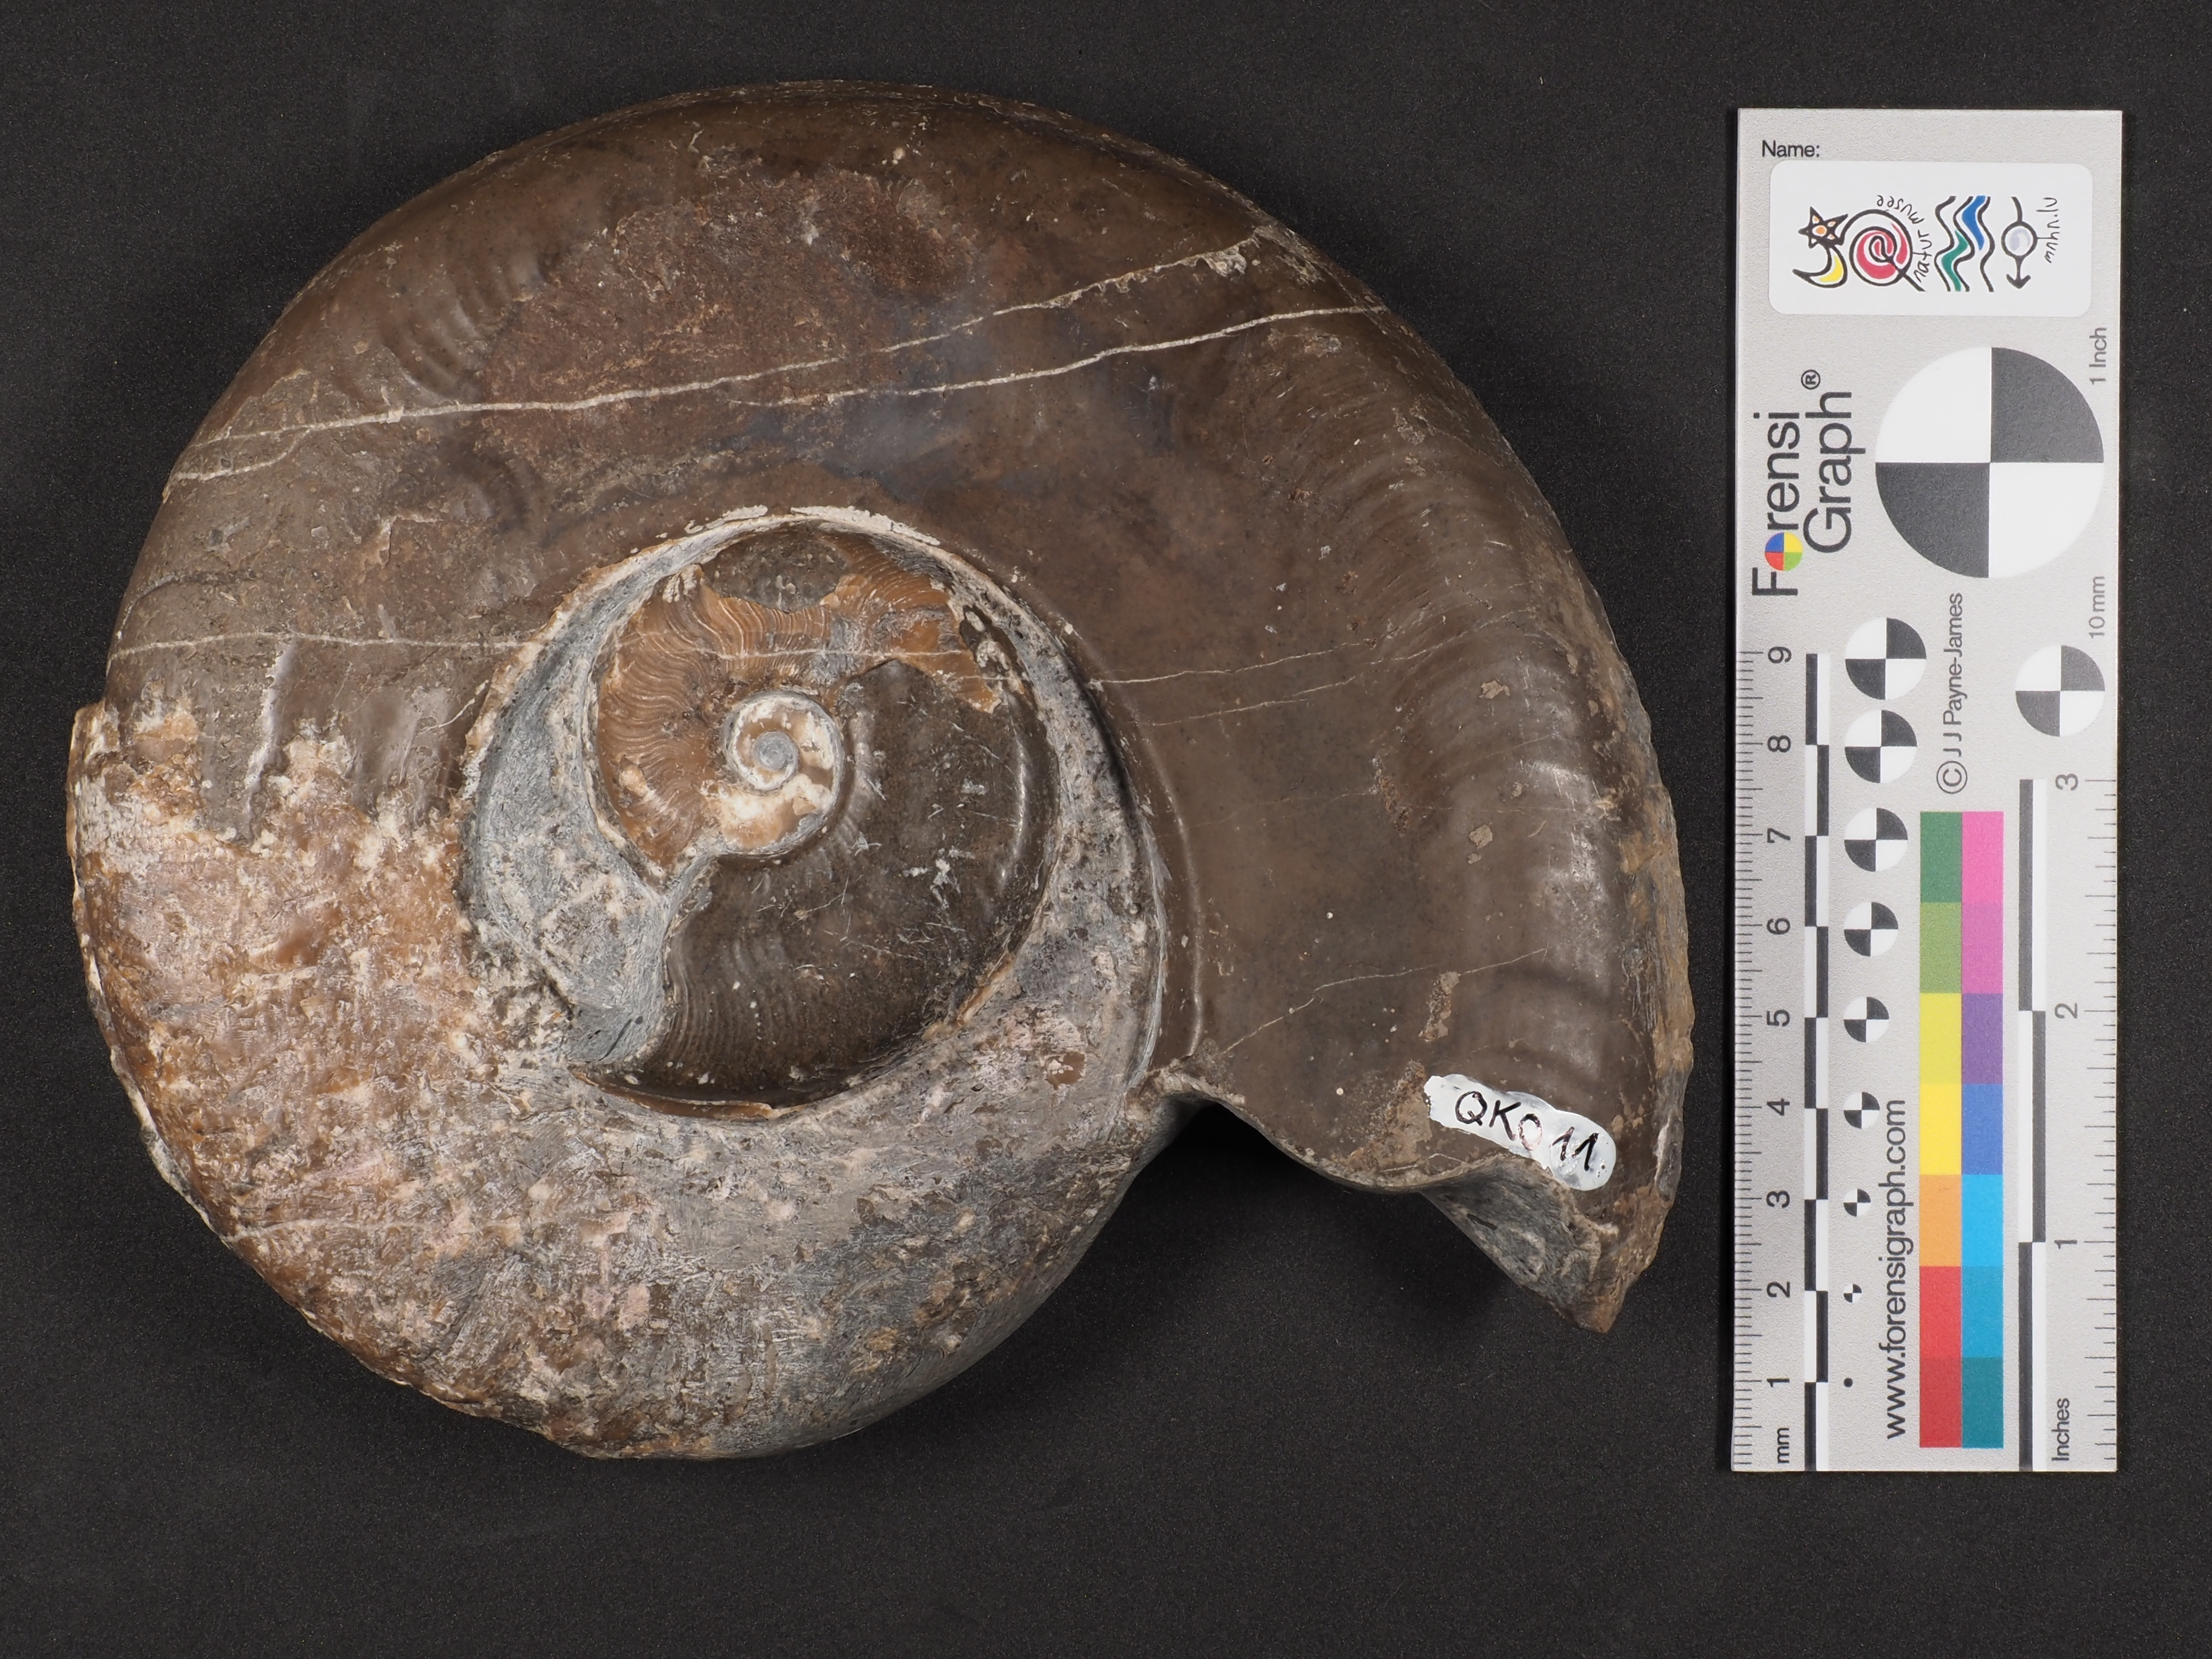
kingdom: Animalia
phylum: Mollusca
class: Cephalopoda
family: Hildoceratidae
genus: Harpoceras
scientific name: Harpoceras
